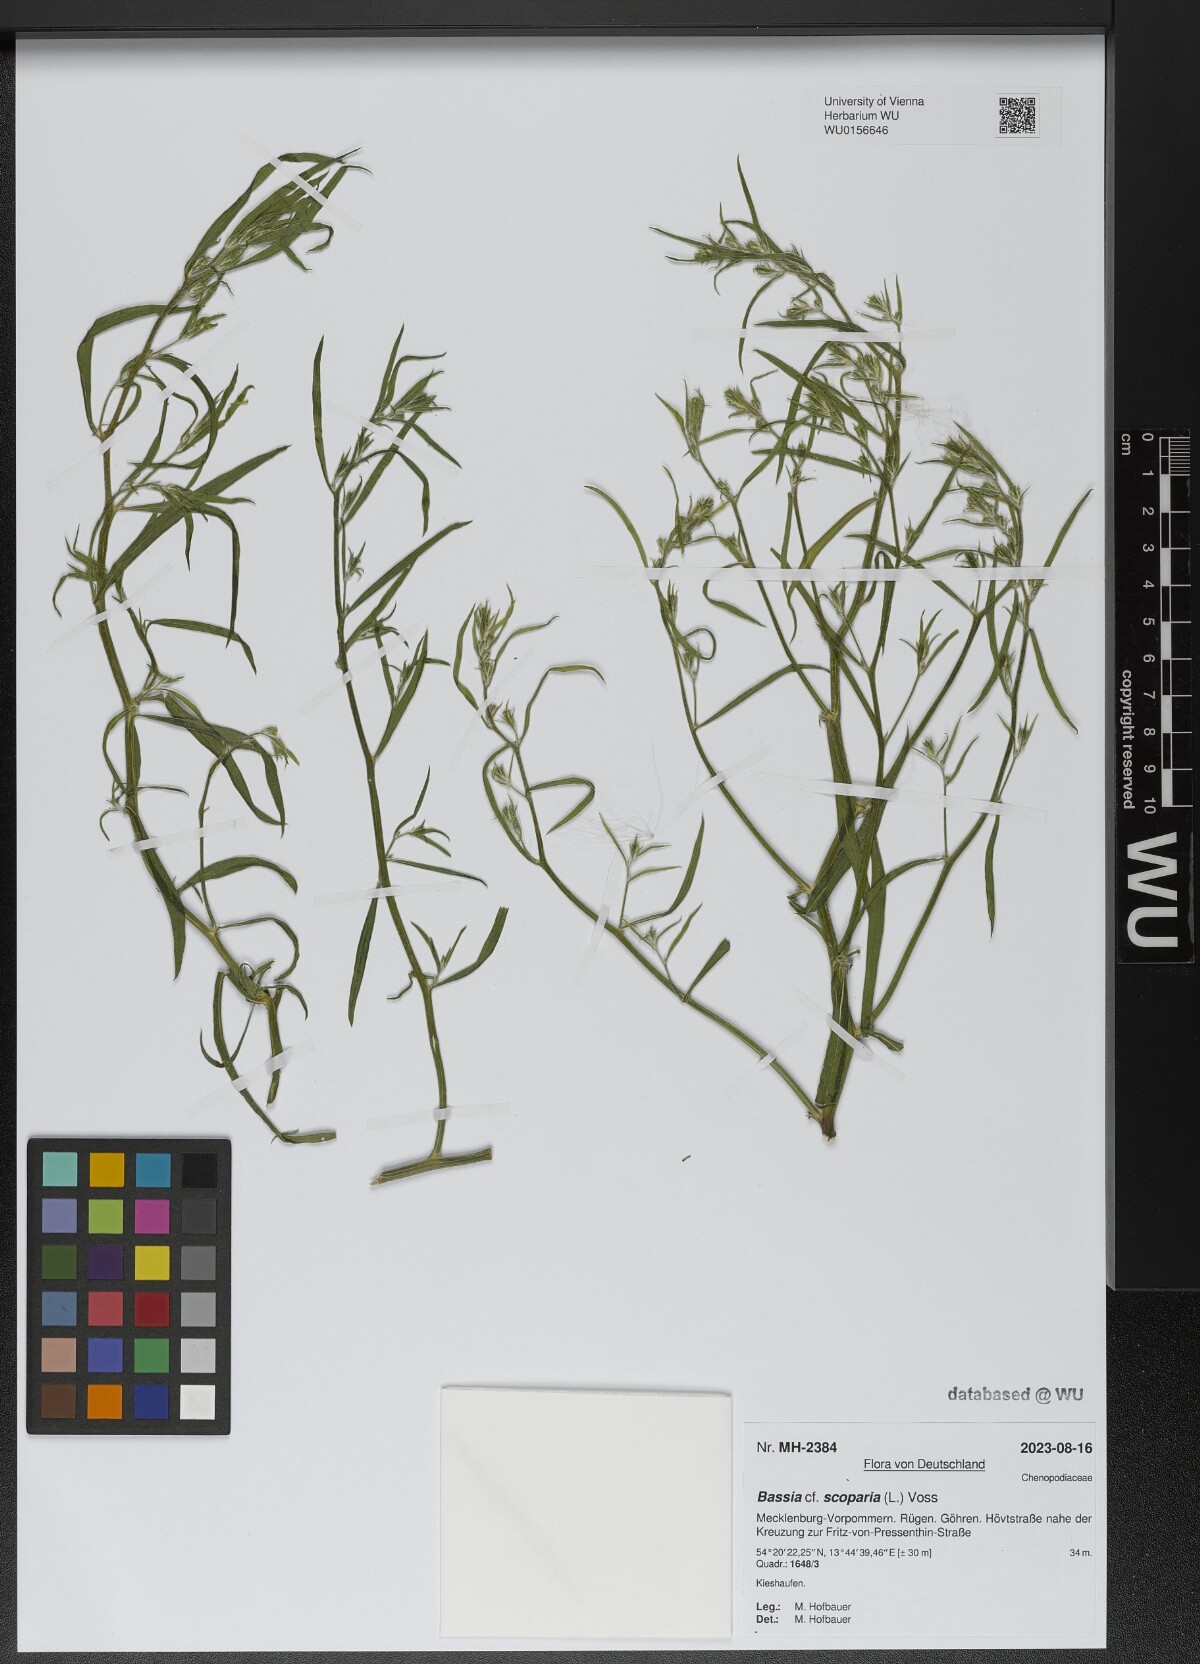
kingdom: Plantae
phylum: Tracheophyta
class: Magnoliopsida
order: Caryophyllales
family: Amaranthaceae
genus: Bassia
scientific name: Bassia scoparia
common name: Belvedere
